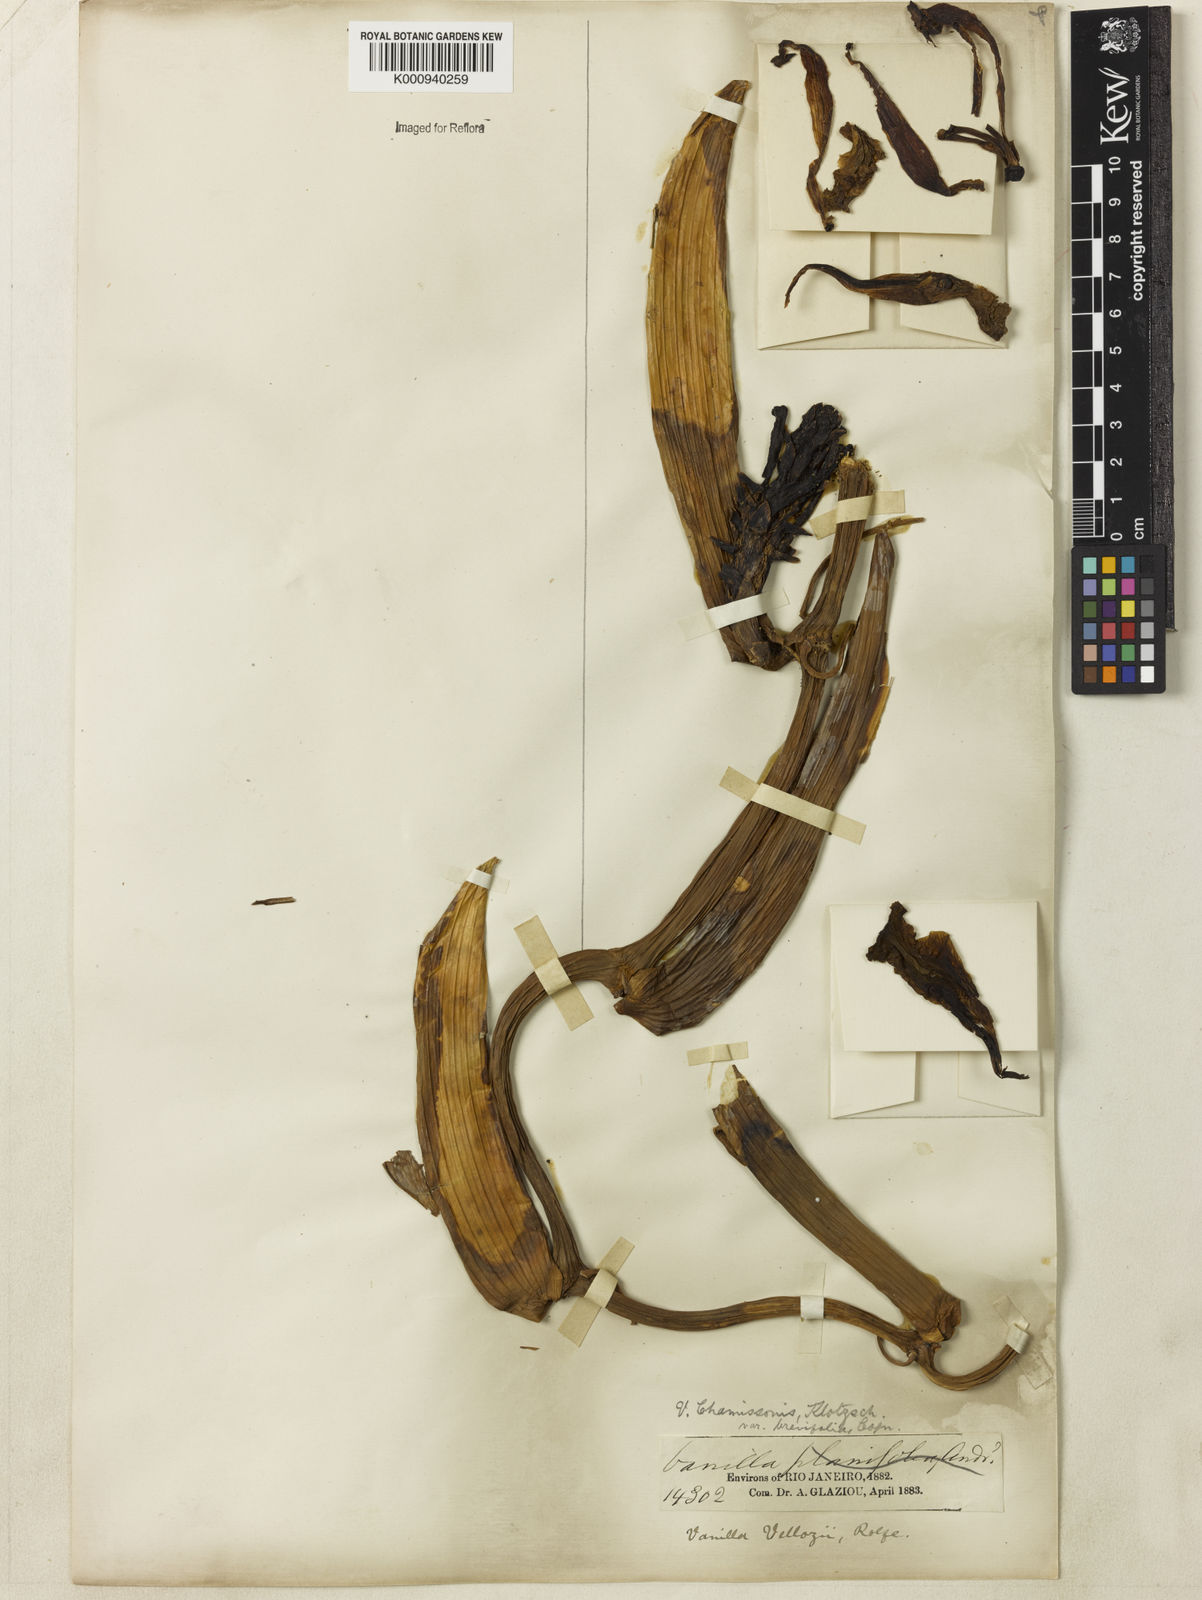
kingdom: Plantae
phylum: Tracheophyta
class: Liliopsida
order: Asparagales
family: Orchidaceae
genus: Vanilla
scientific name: Vanilla vellozoi
